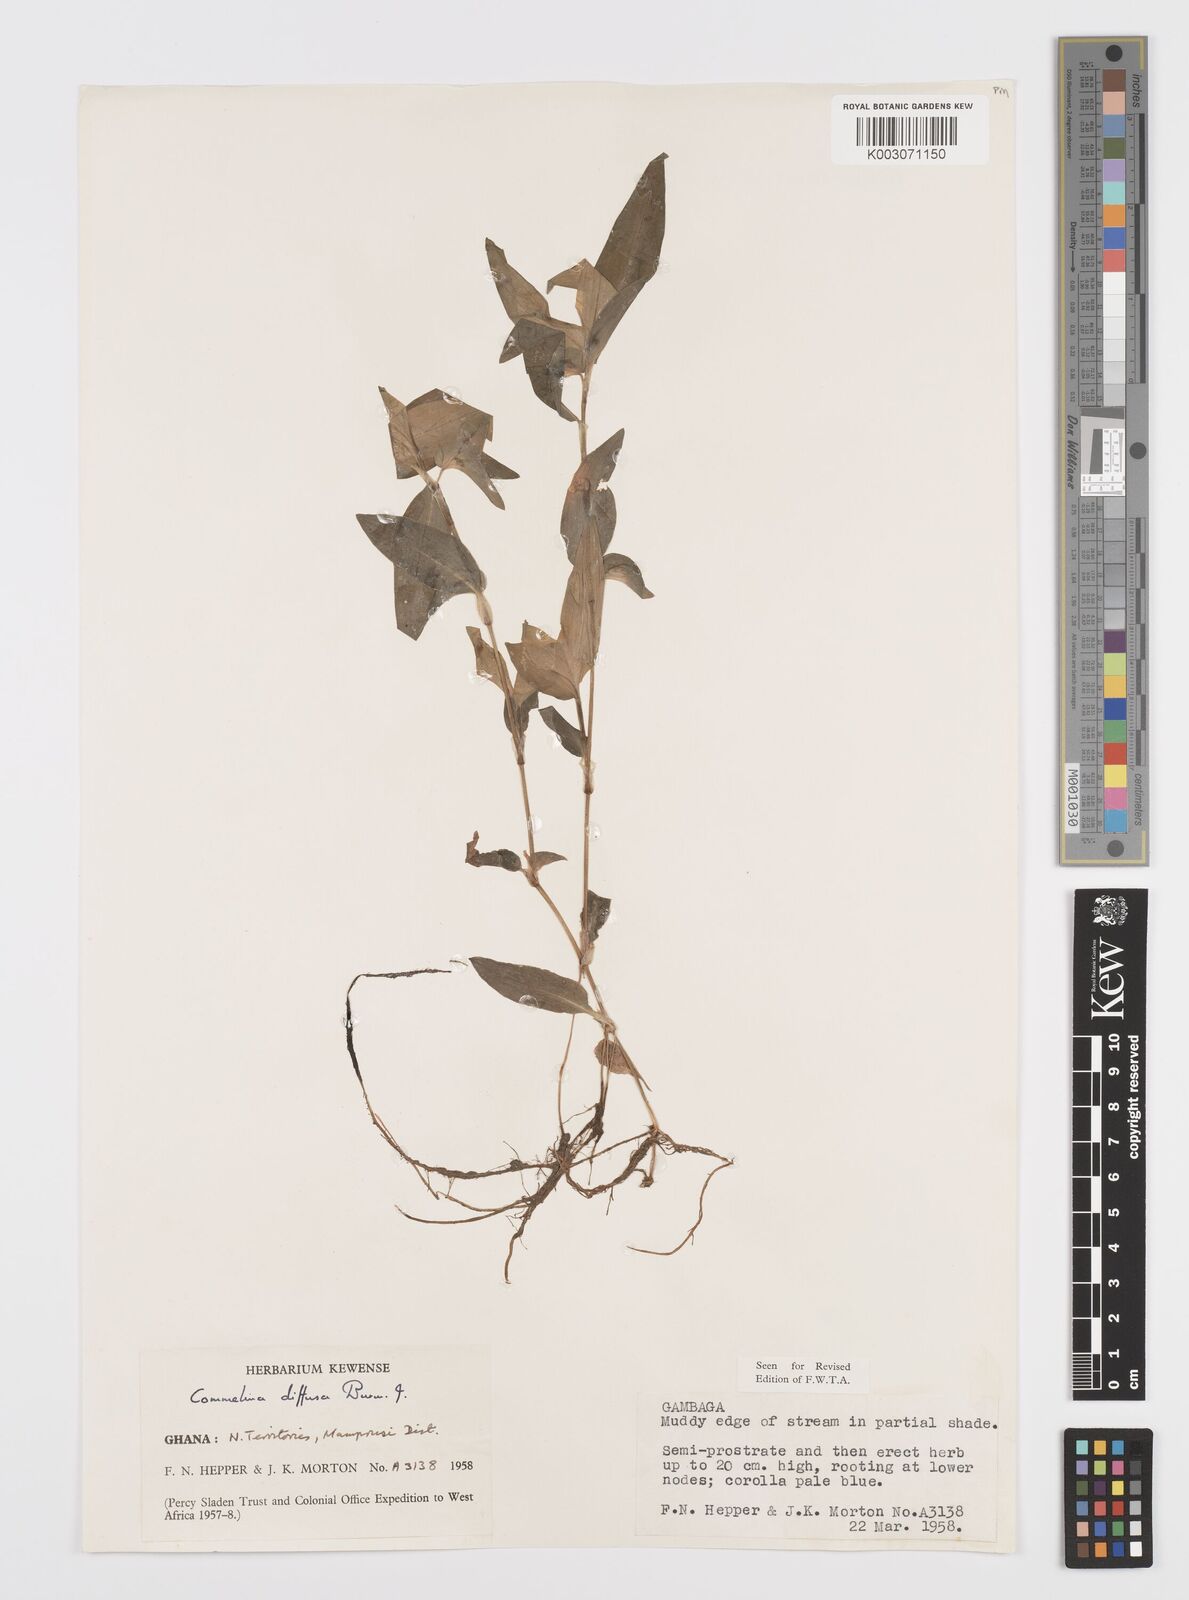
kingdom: Plantae
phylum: Tracheophyta
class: Liliopsida
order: Commelinales
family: Commelinaceae
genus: Commelina
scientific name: Commelina diffusa
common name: Climbing dayflower
